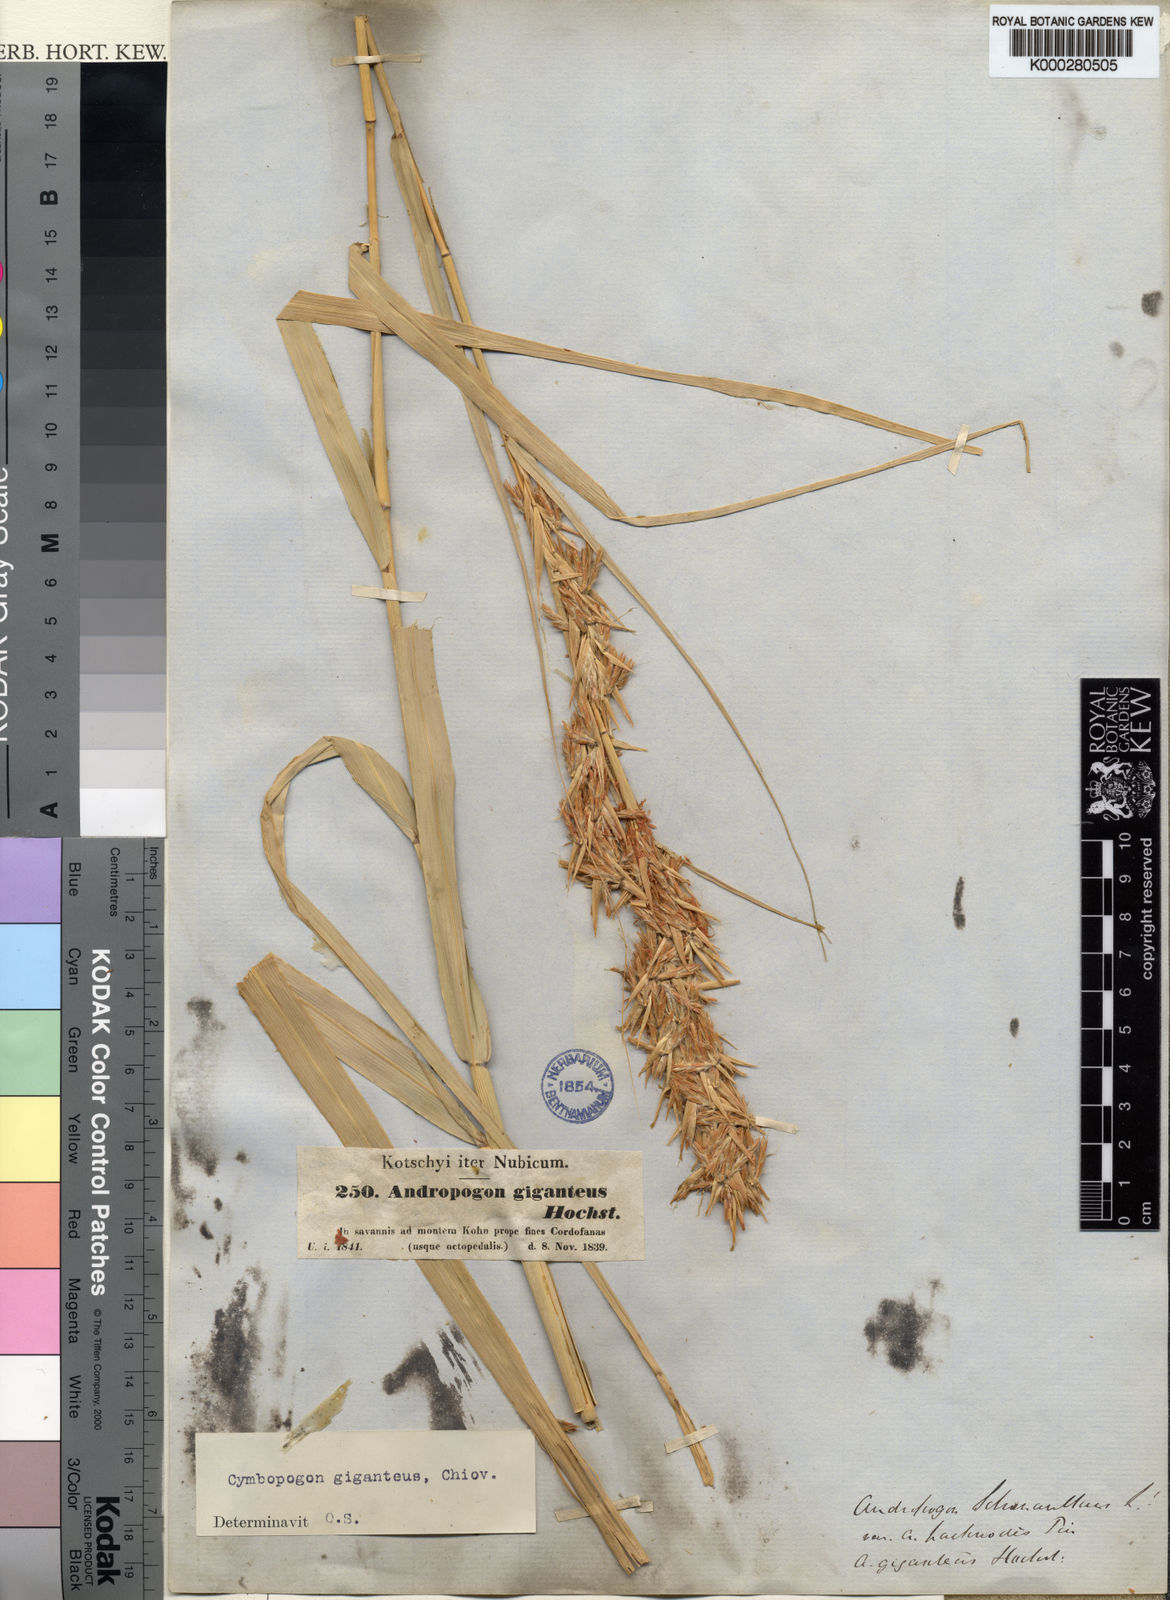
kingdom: Plantae
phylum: Tracheophyta
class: Liliopsida
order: Poales
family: Poaceae
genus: Cymbopogon
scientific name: Cymbopogon giganteus
